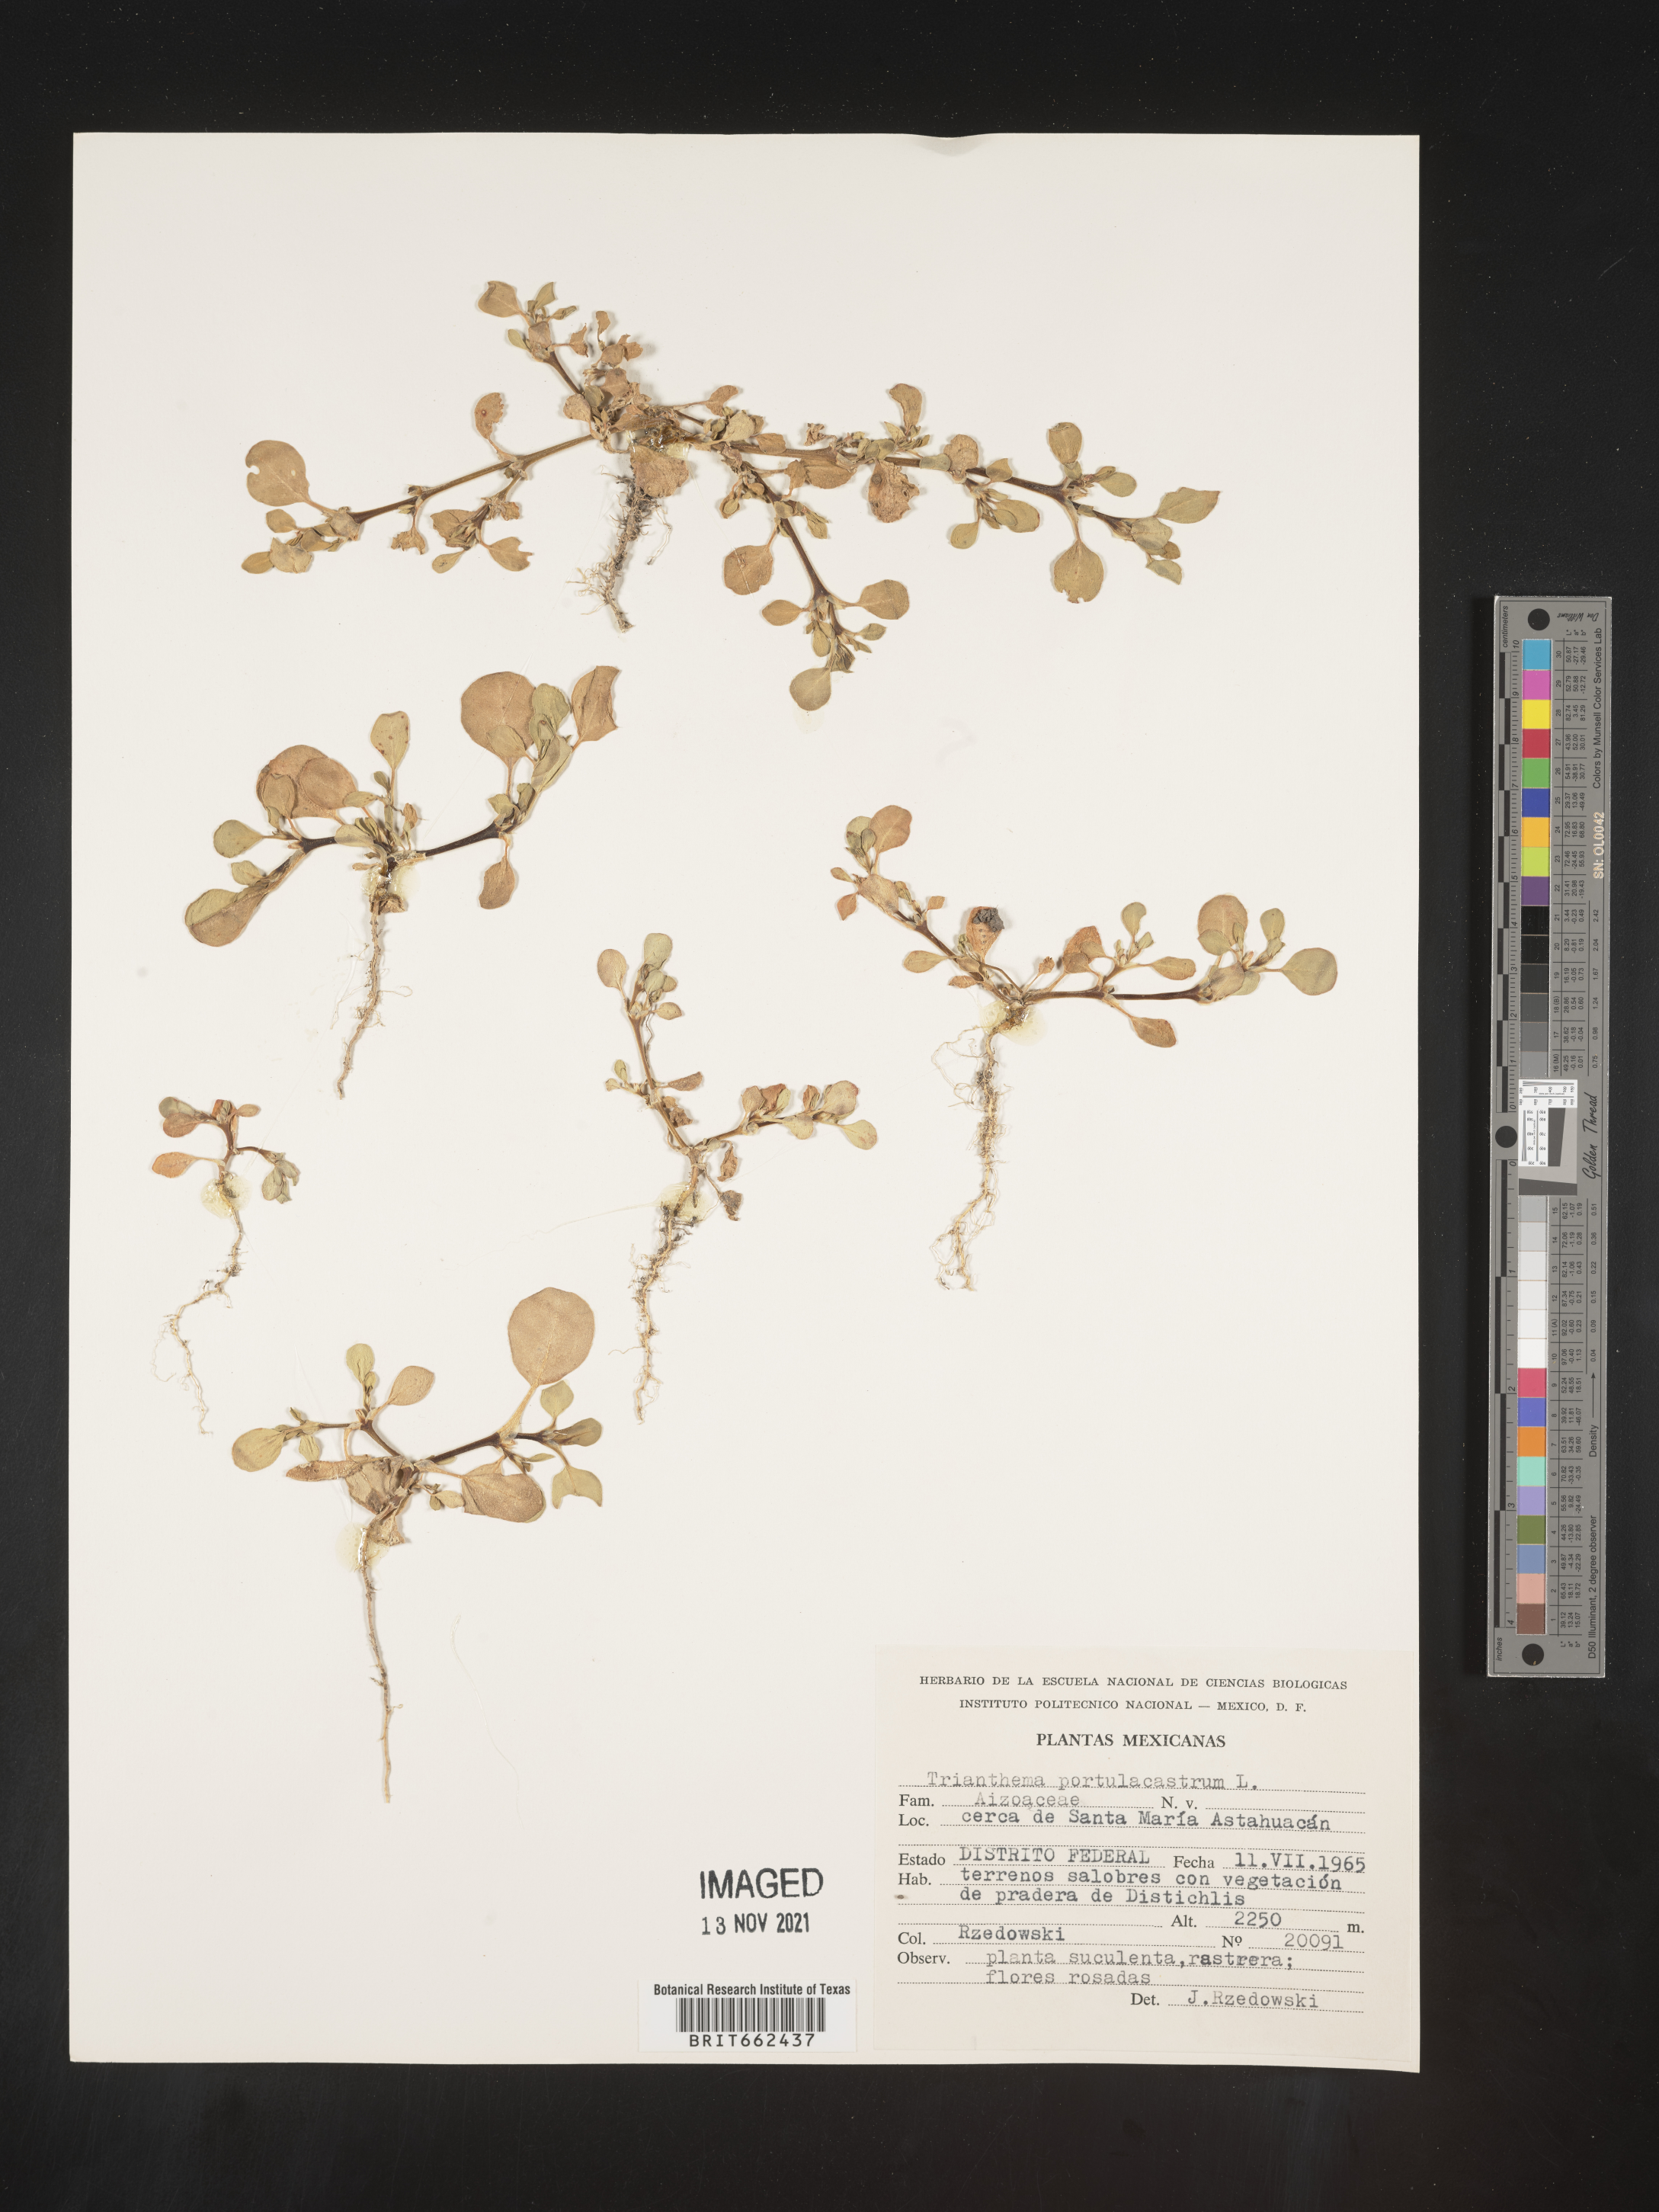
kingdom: Plantae
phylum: Tracheophyta
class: Magnoliopsida
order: Caryophyllales
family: Aizoaceae
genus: Trianthema
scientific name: Trianthema
